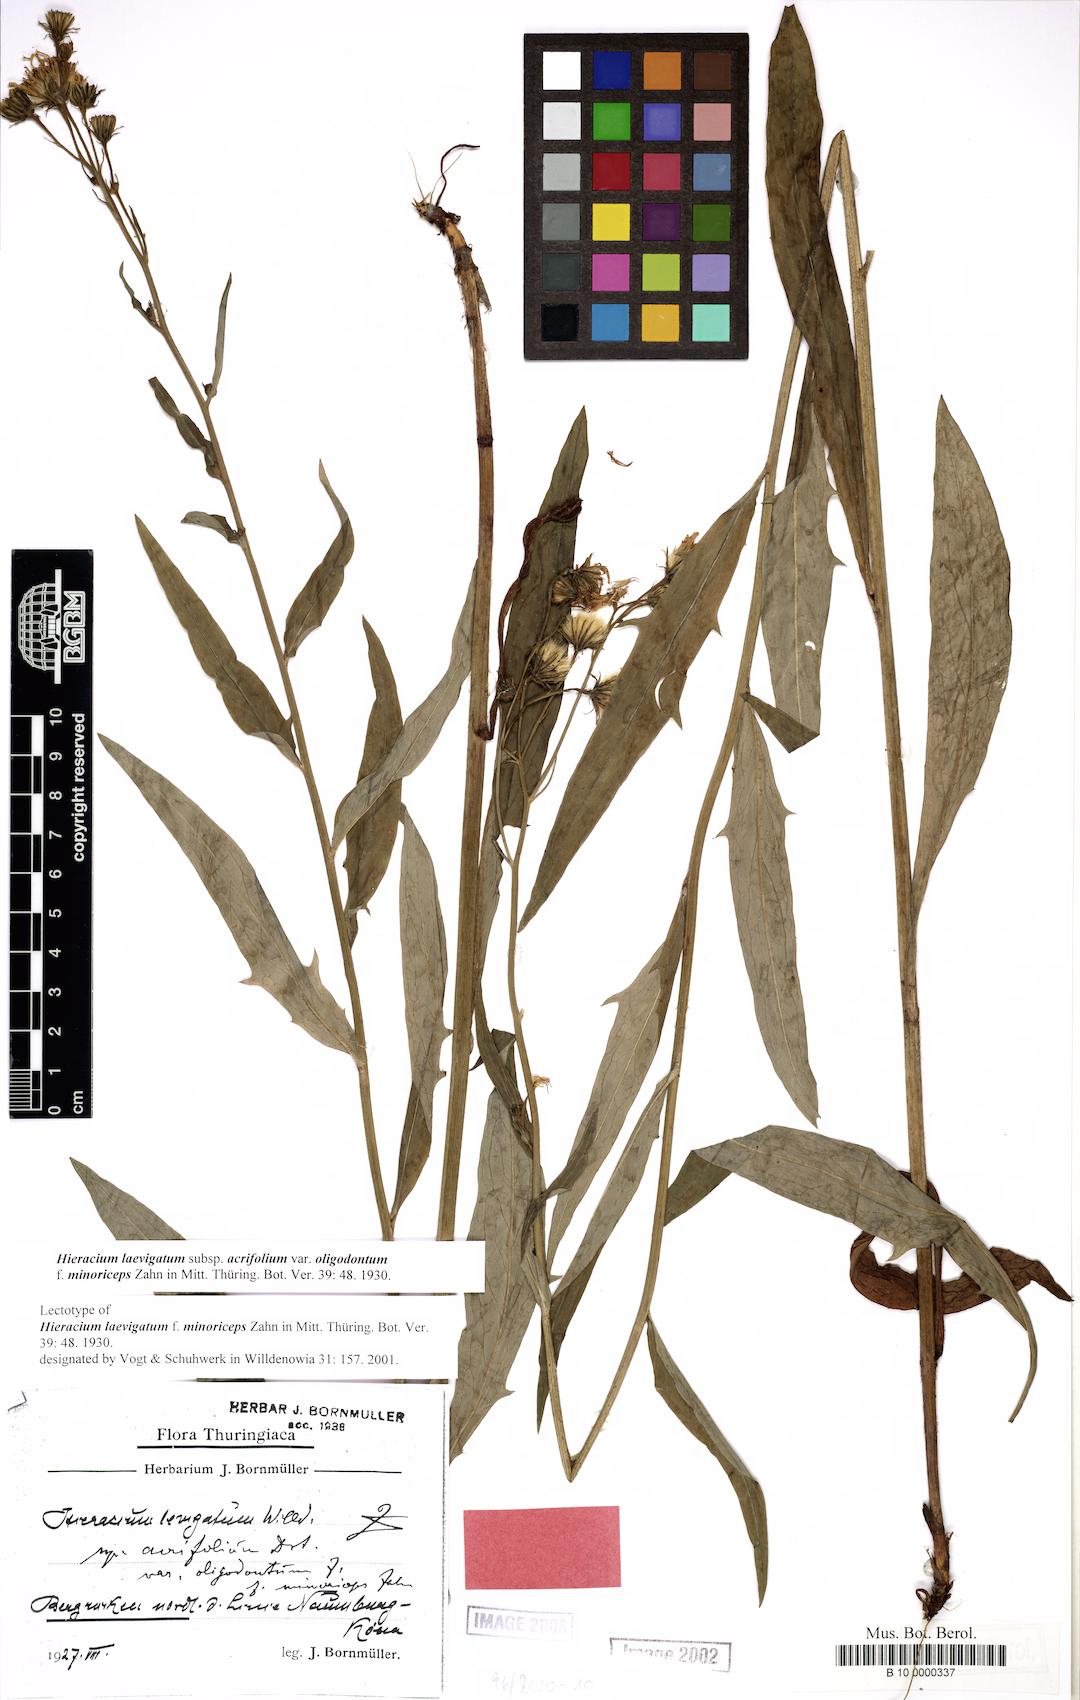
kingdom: Plantae
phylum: Tracheophyta
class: Magnoliopsida
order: Asterales
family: Asteraceae
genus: Hieracium
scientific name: Hieracium laevigatum
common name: Smooth hawkweed
